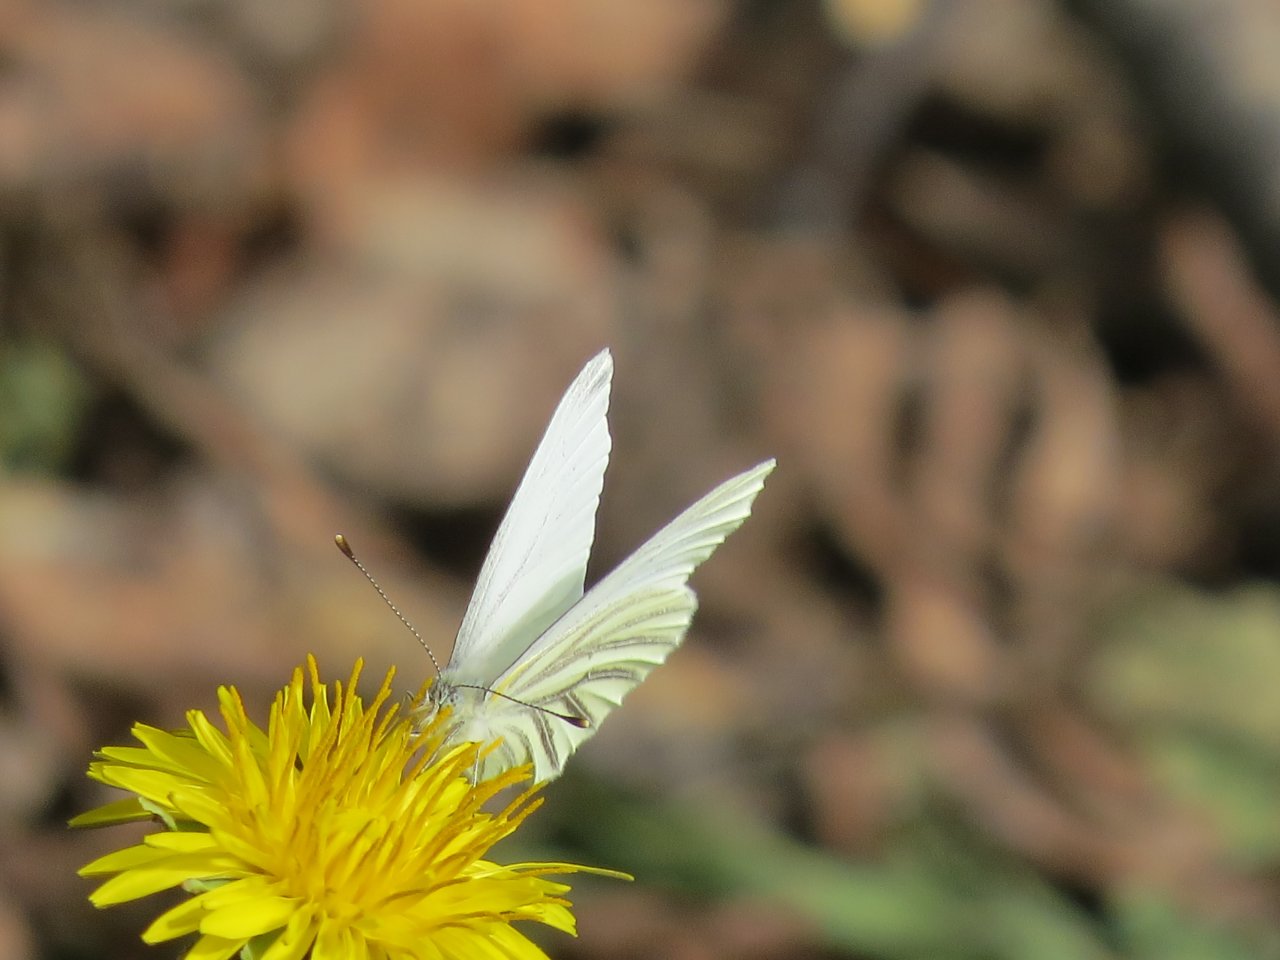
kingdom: Animalia
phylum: Arthropoda
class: Insecta
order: Lepidoptera
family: Pieridae
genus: Pieris
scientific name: Pieris oleracea
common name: Mustard White
